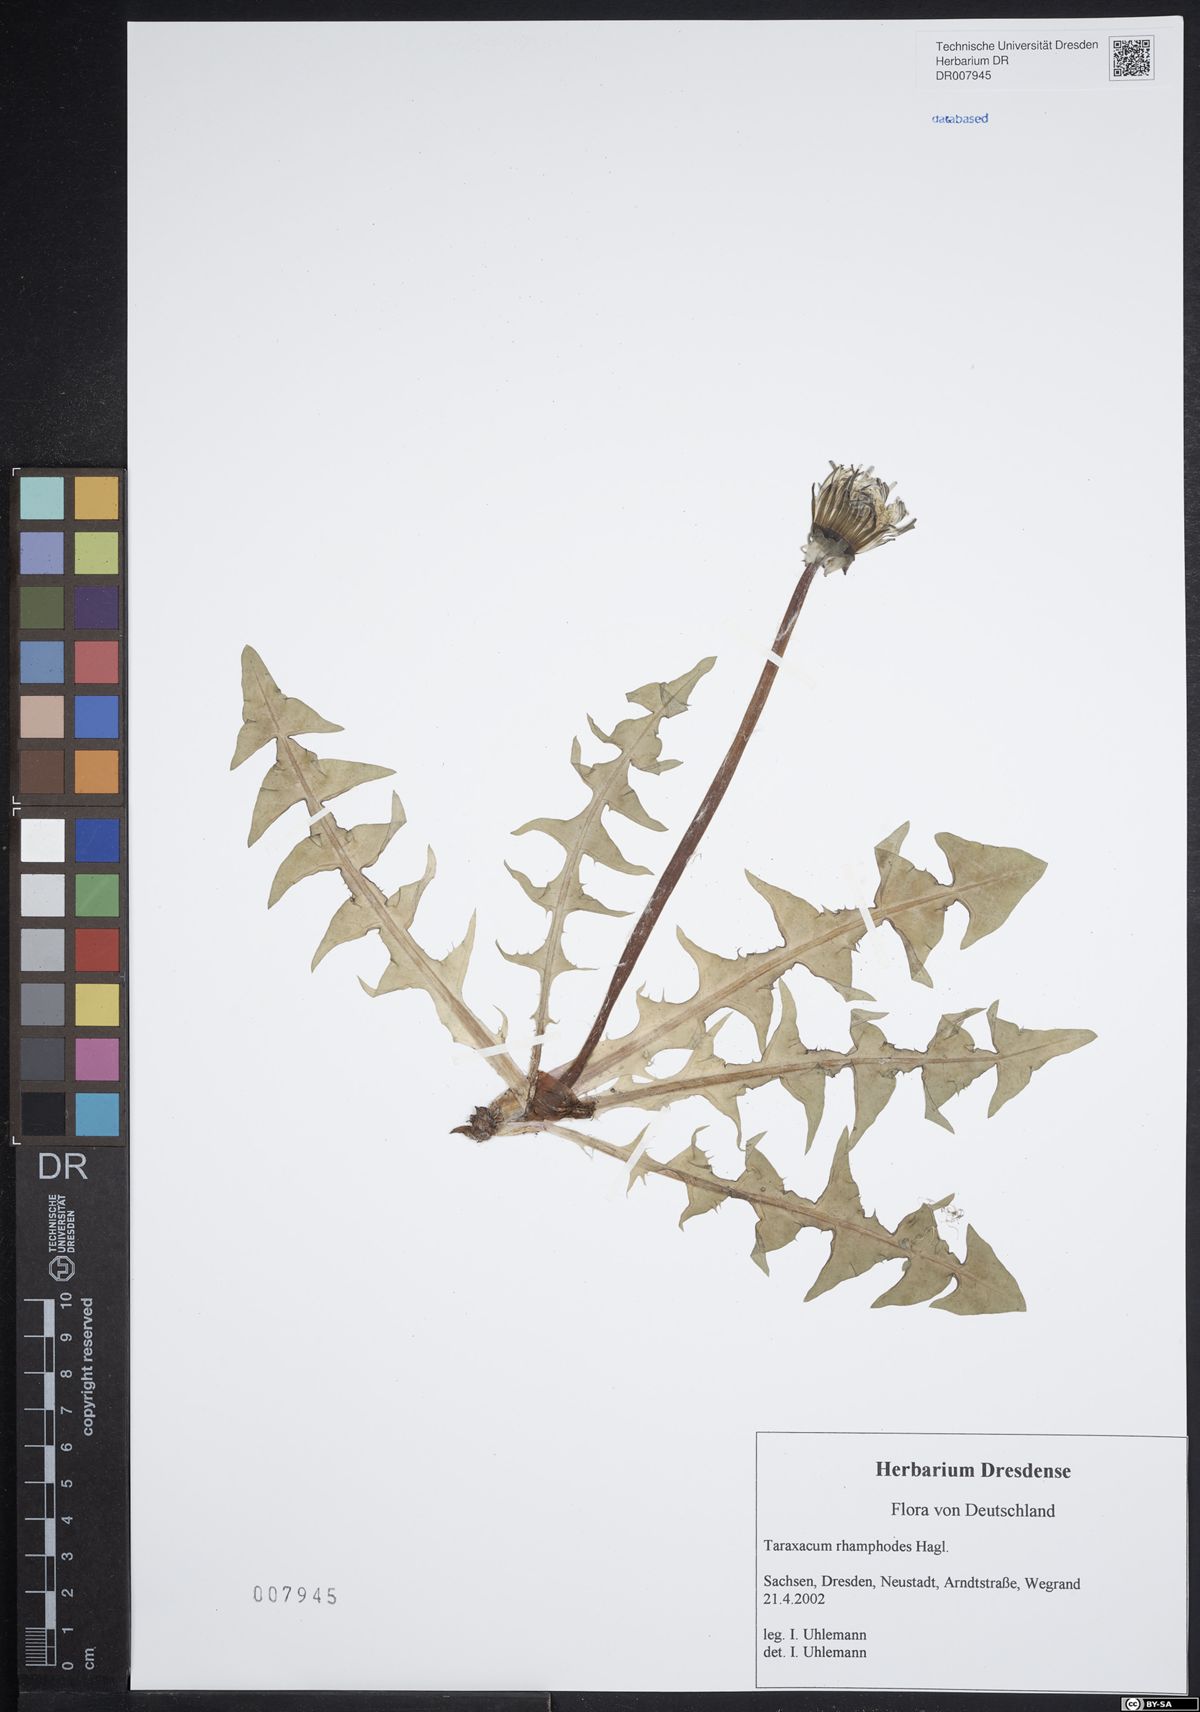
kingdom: Plantae
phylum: Tracheophyta
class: Magnoliopsida
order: Asterales
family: Asteraceae
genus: Taraxacum
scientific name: Taraxacum rhamphodes
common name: Robust dandelion
